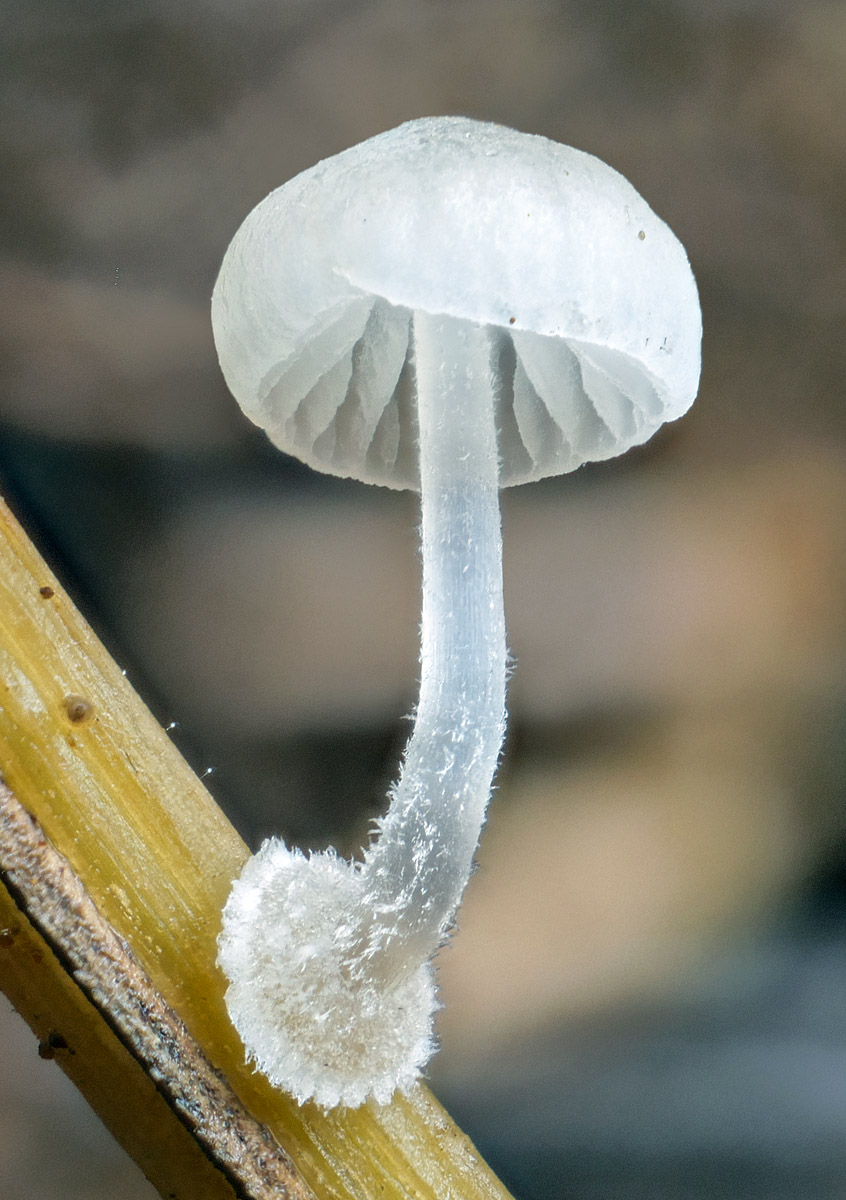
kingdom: Fungi
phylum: Basidiomycota
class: Agaricomycetes
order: Agaricales
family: Mycenaceae
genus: Mycena
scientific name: Mycena stylobates
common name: fureskivet huesvamp
